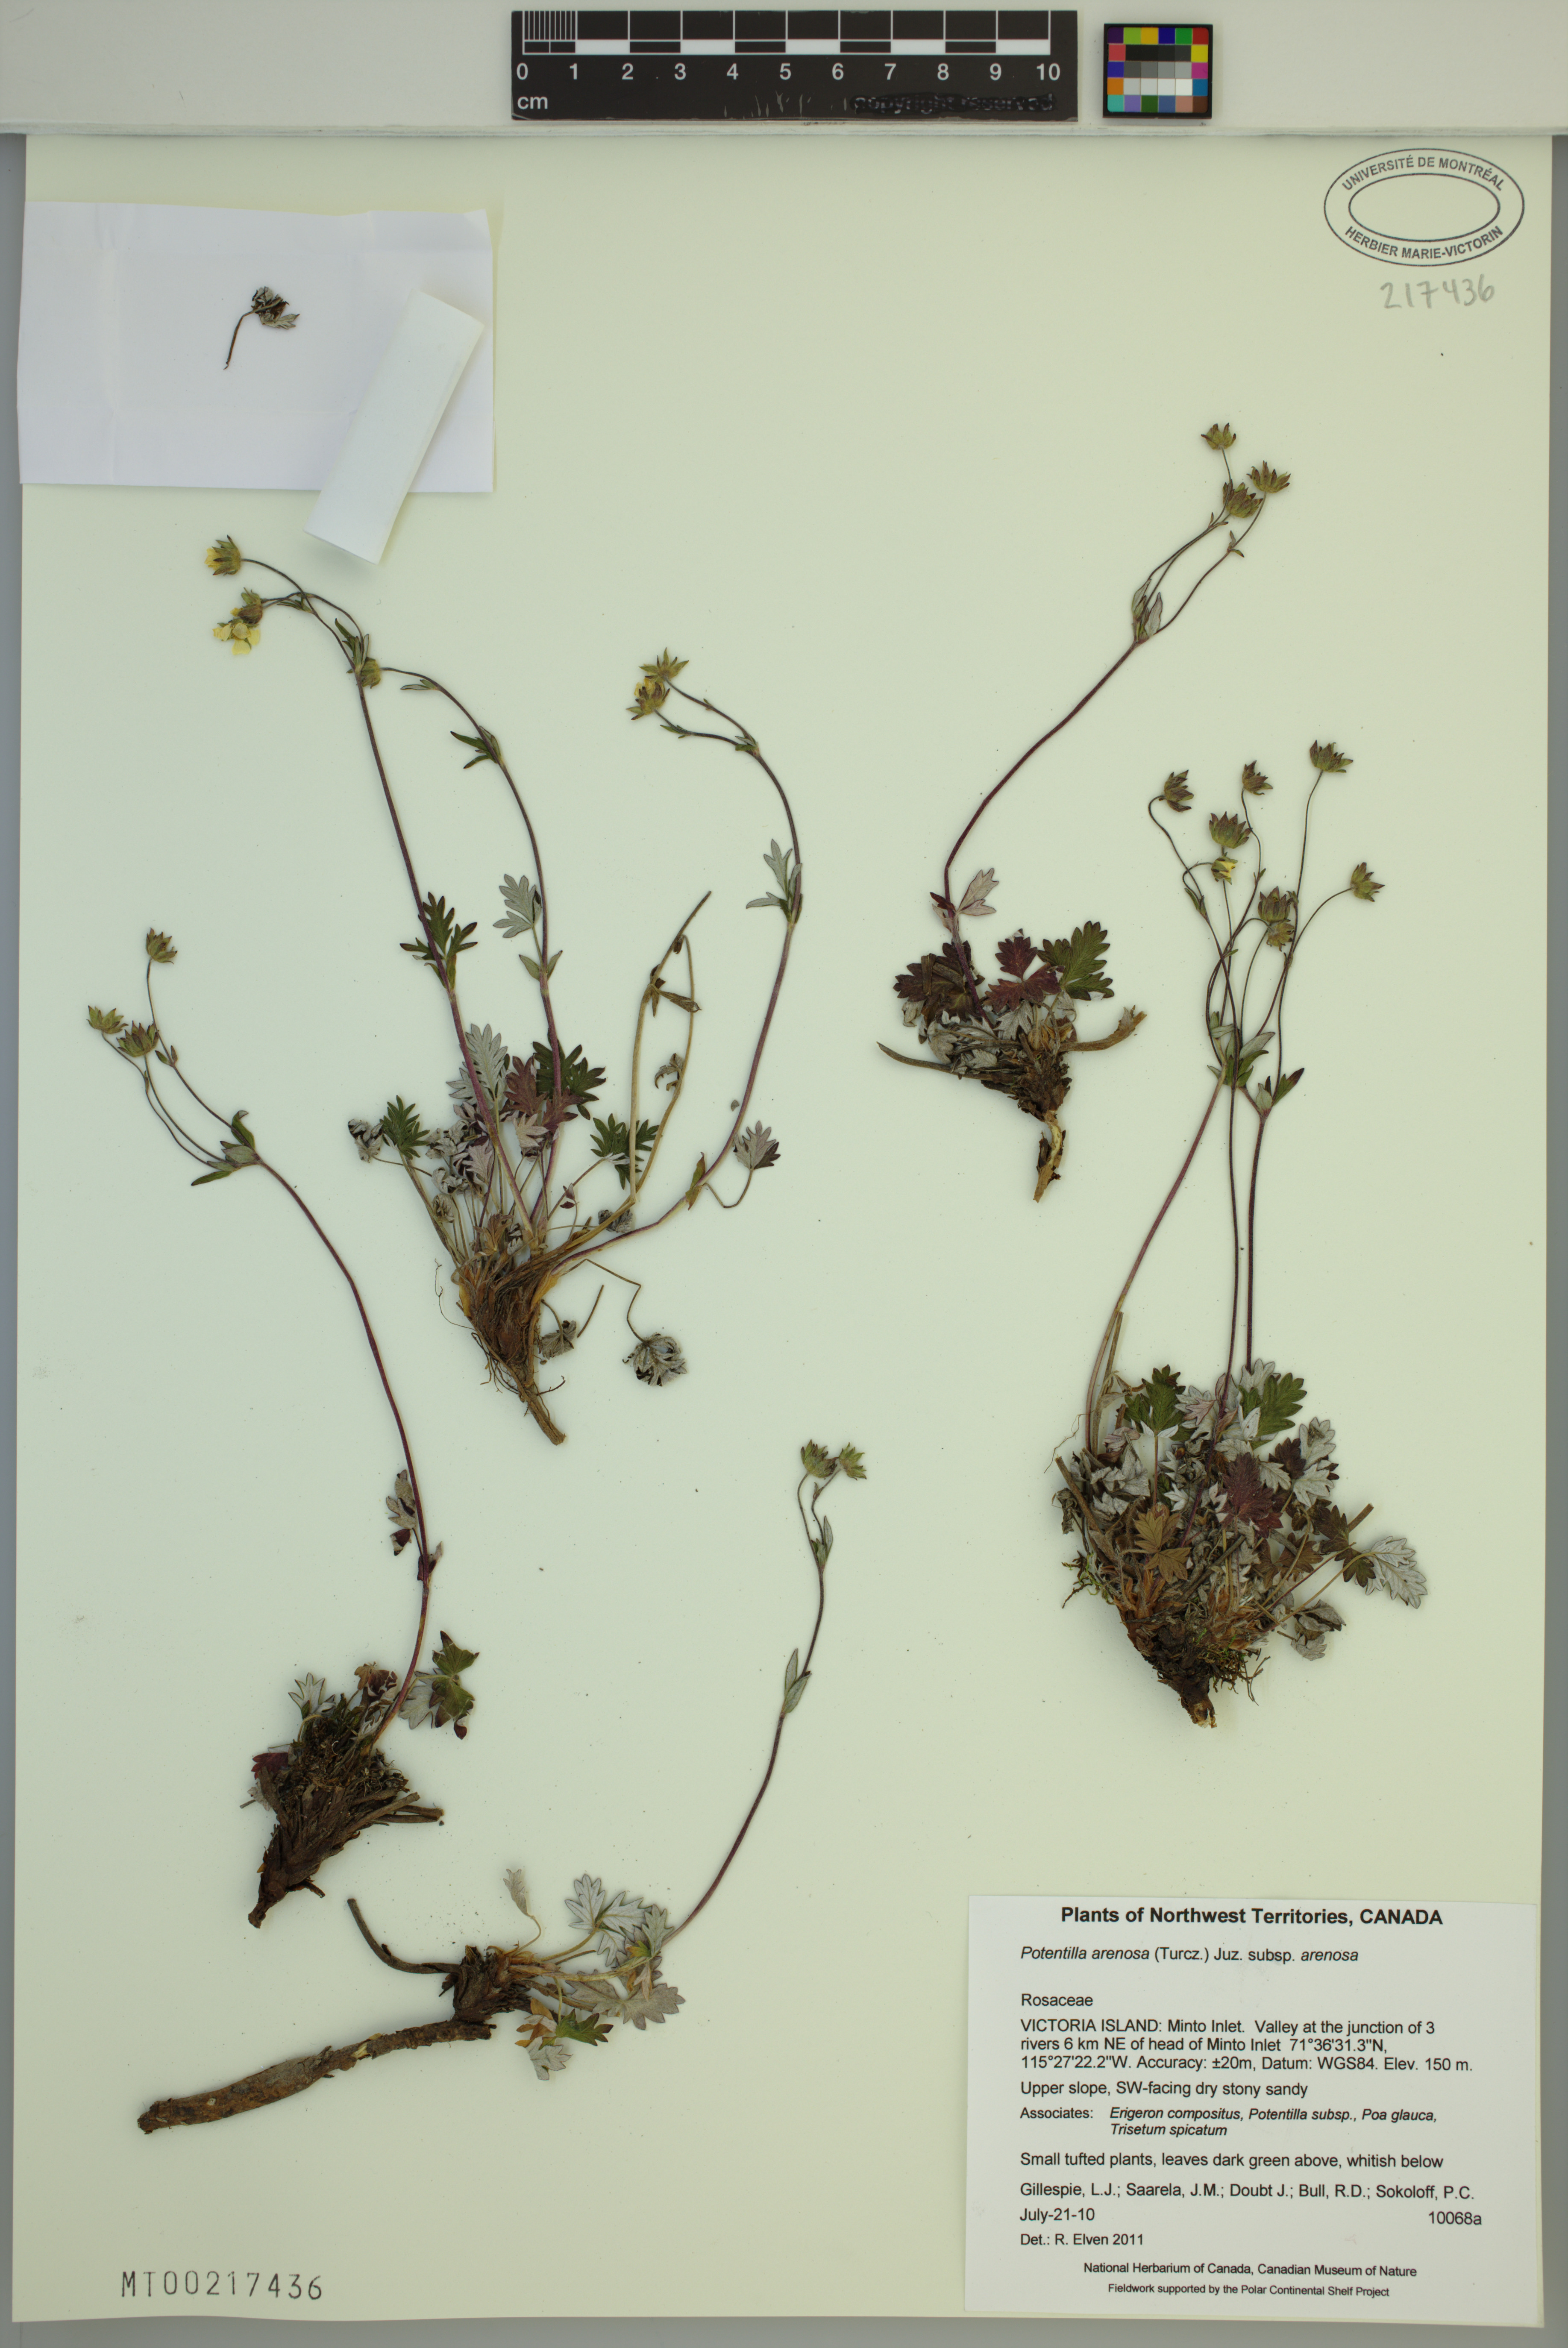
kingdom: Plantae
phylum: Tracheophyta
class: Magnoliopsida
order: Rosales
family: Rosaceae
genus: Potentilla
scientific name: Potentilla arenosa
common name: Bluff cinquefoil
